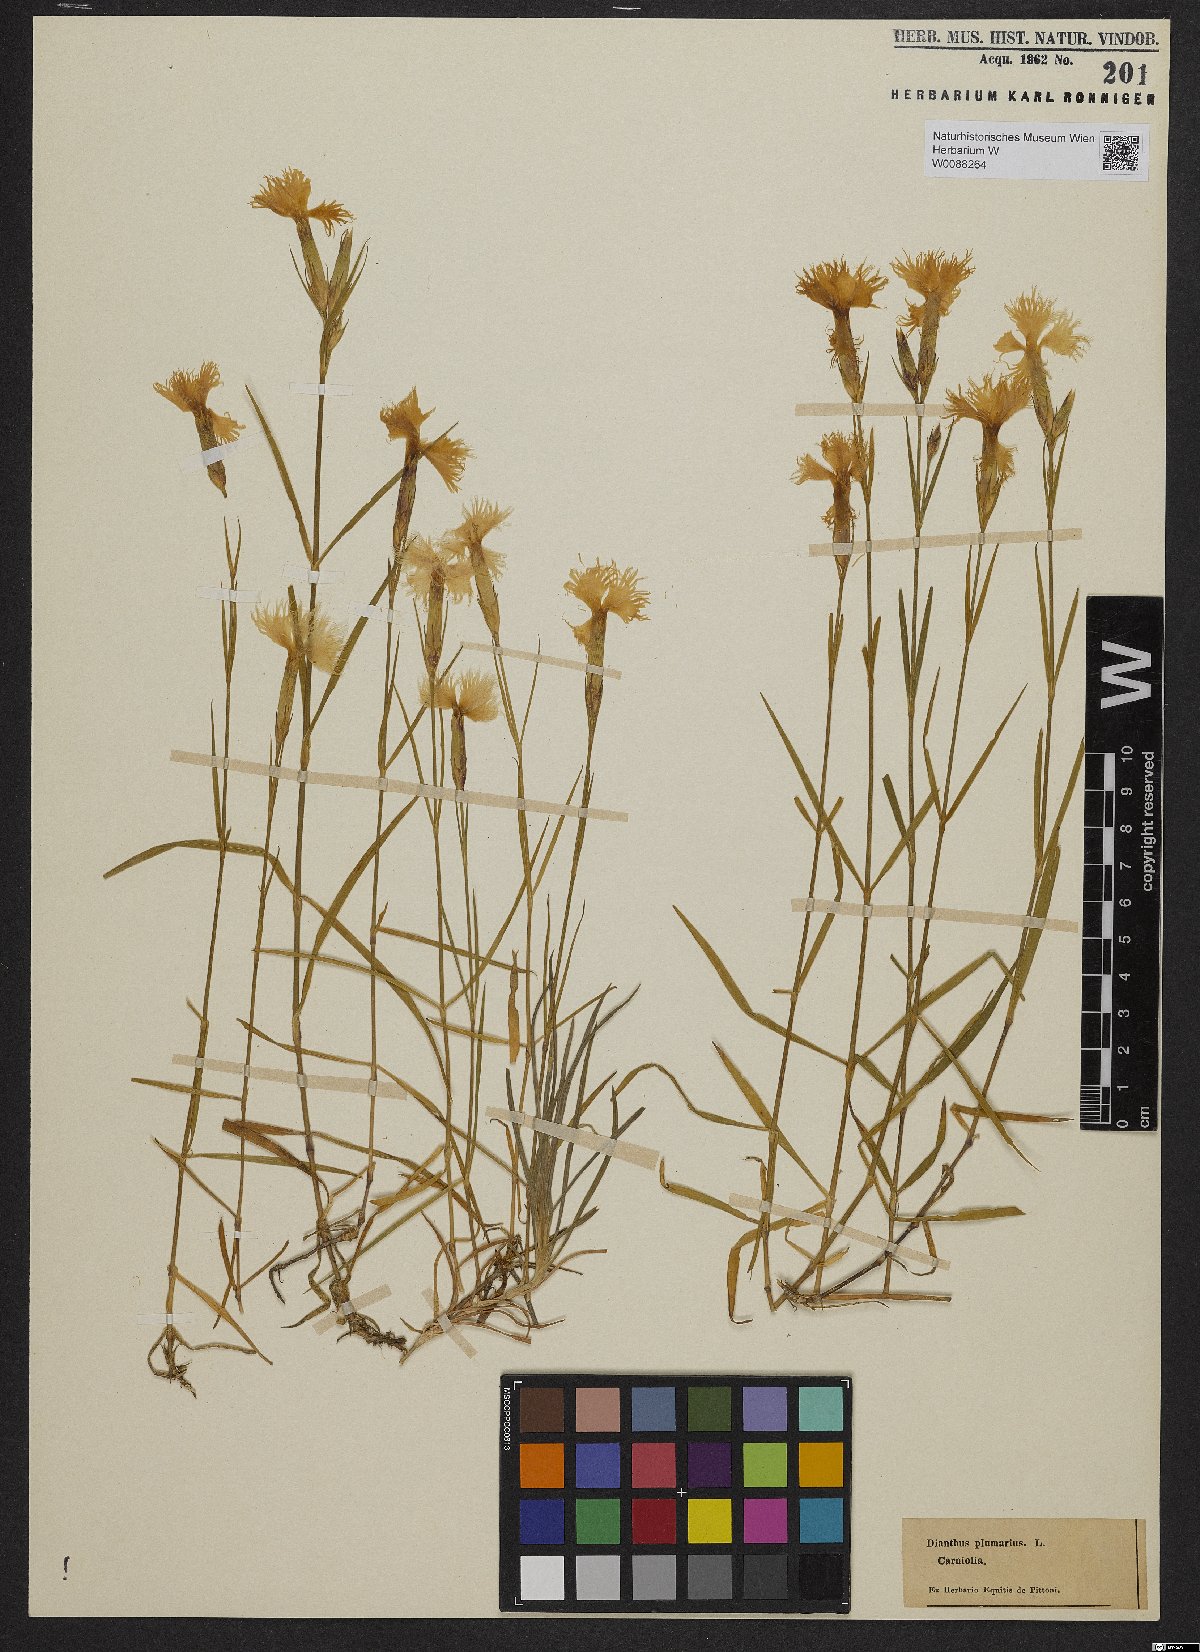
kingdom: Plantae
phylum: Tracheophyta
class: Magnoliopsida
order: Caryophyllales
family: Caryophyllaceae
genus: Dianthus
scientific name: Dianthus plumarius
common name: Pink
